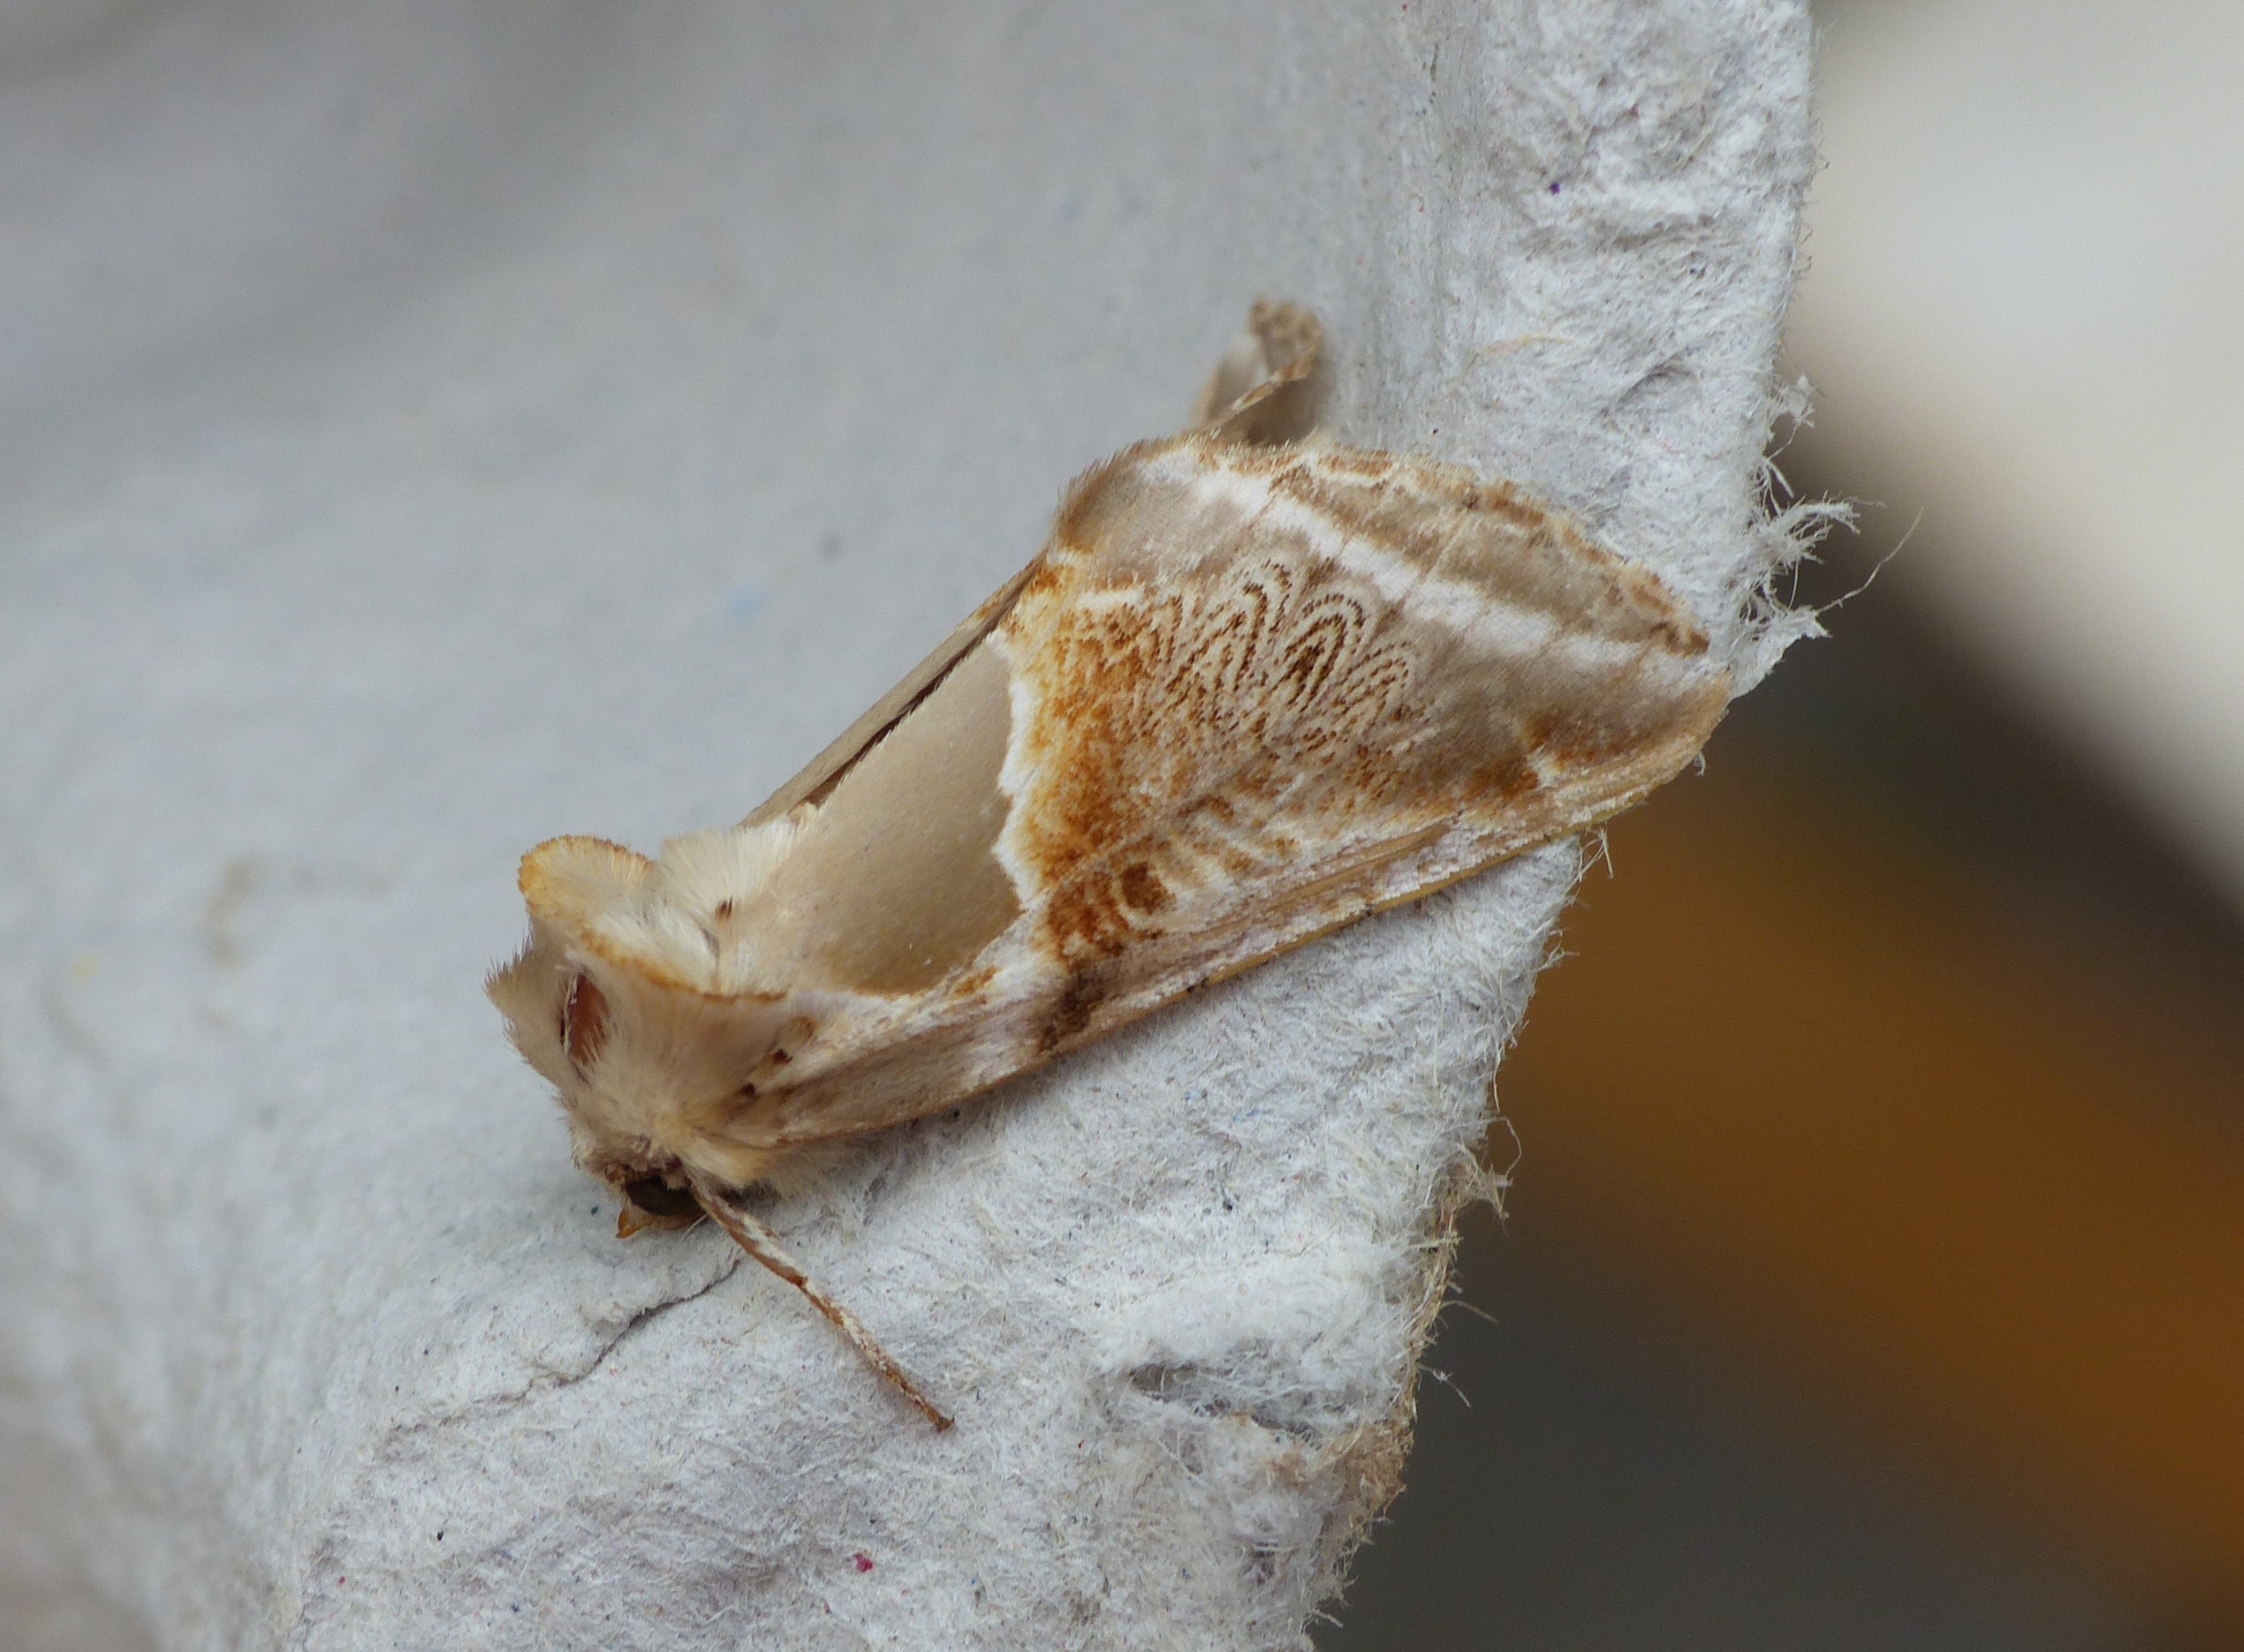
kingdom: Animalia
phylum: Arthropoda
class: Insecta
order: Lepidoptera
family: Drepanidae
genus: Habrosyne
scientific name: Habrosyne pyritoides
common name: Klyngerspinder
